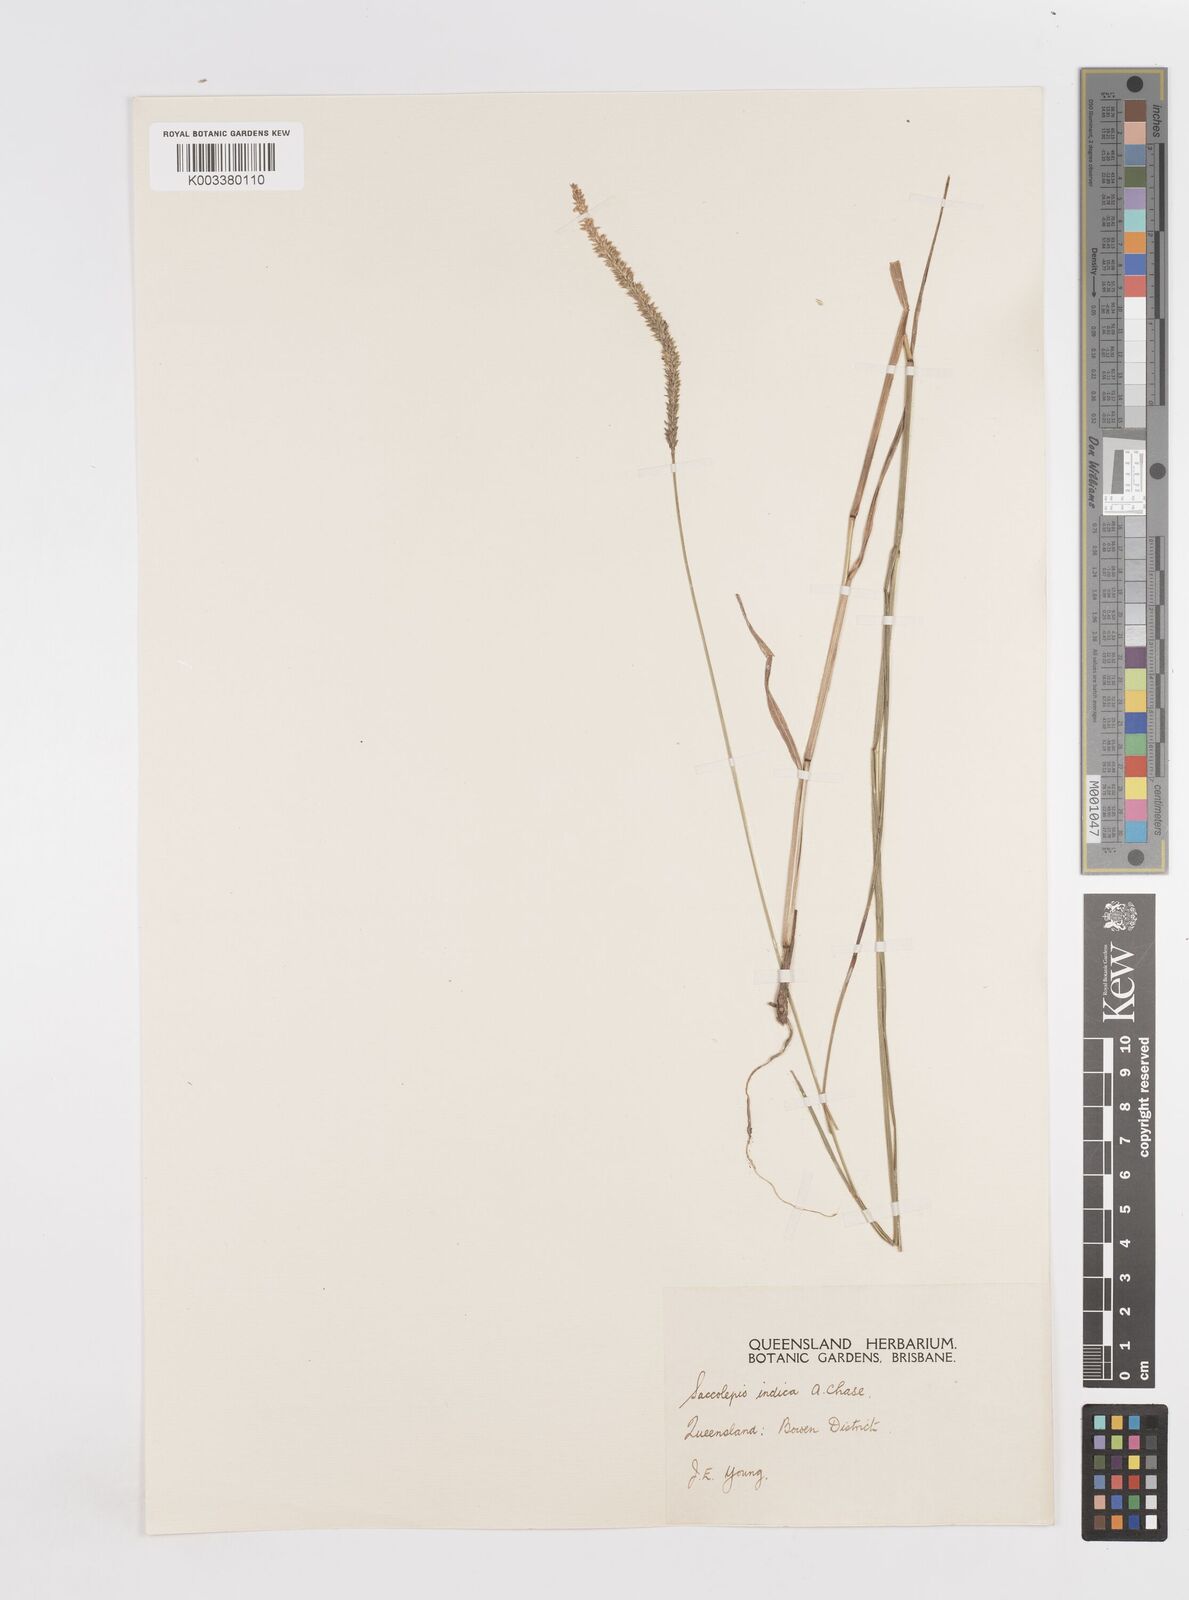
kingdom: Plantae
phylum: Tracheophyta
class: Liliopsida
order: Poales
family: Poaceae
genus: Sacciolepis
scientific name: Sacciolepis indica
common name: Glenwoodgrass
